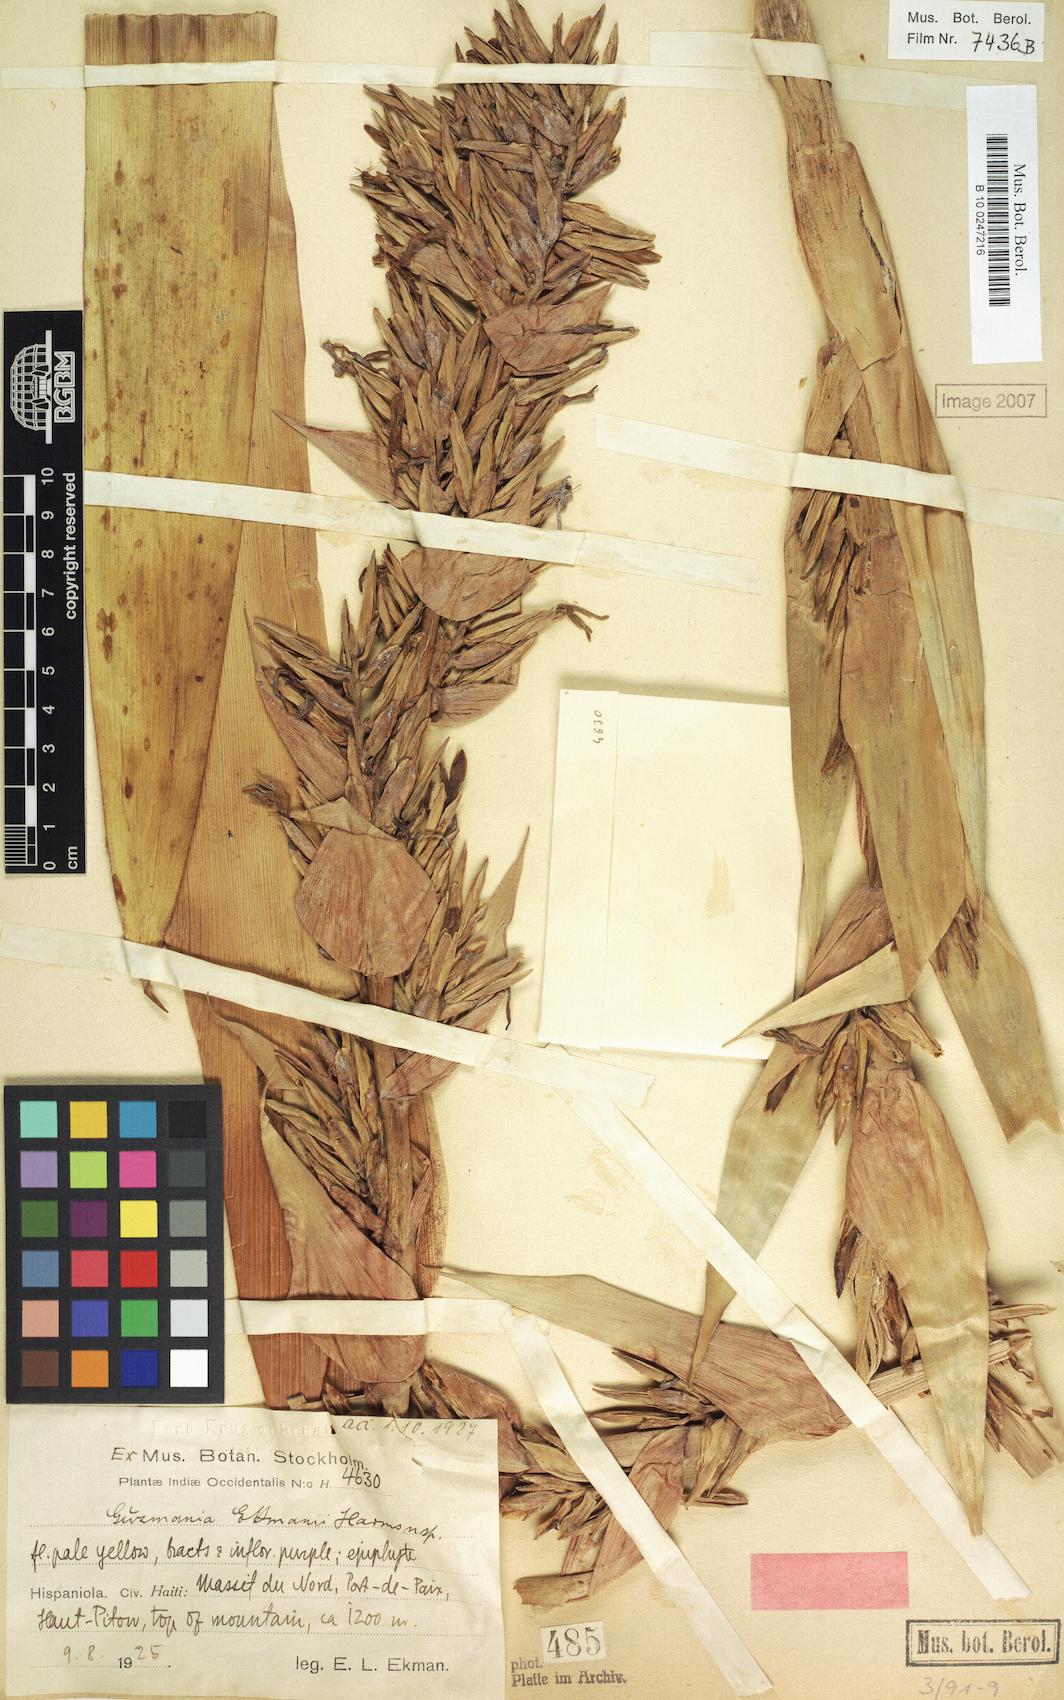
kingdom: Plantae
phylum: Tracheophyta
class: Liliopsida
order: Poales
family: Bromeliaceae
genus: Guzmania
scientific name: Guzmania ekmanii
